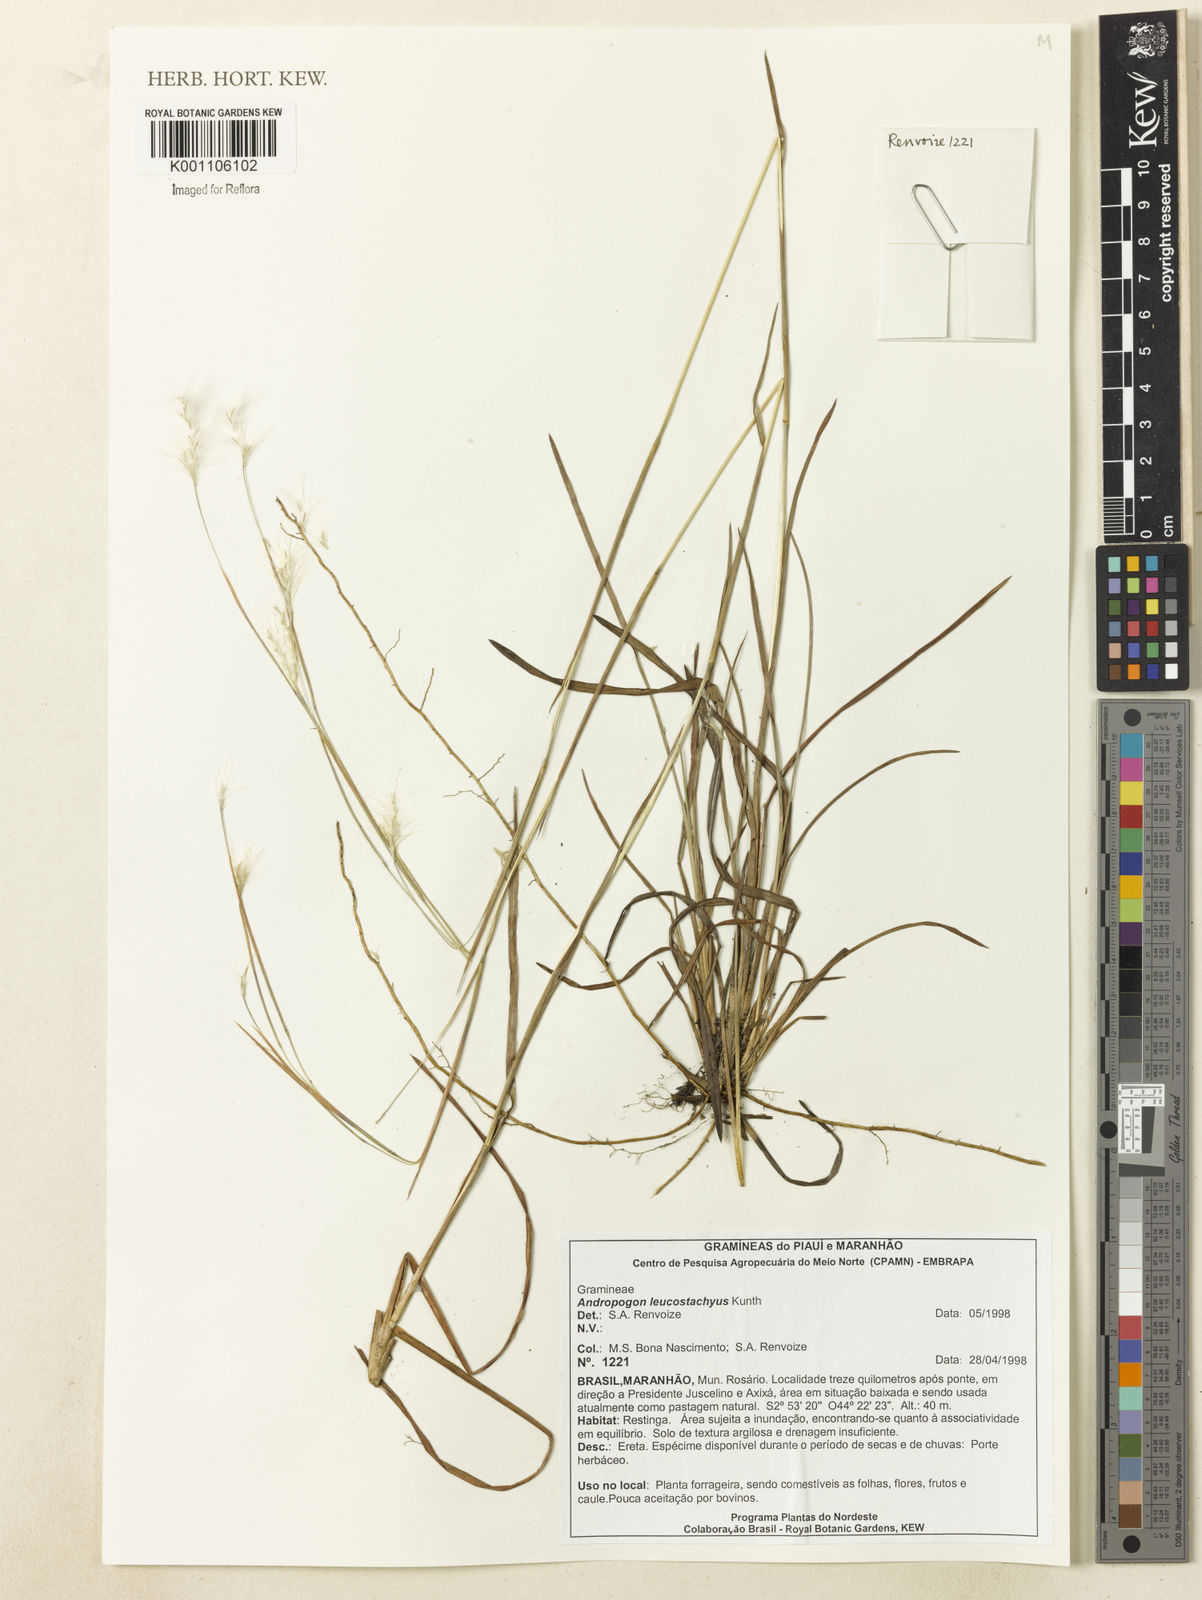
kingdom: Plantae
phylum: Tracheophyta
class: Liliopsida
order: Poales
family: Poaceae
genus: Andropogon
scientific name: Andropogon leucostachyus
